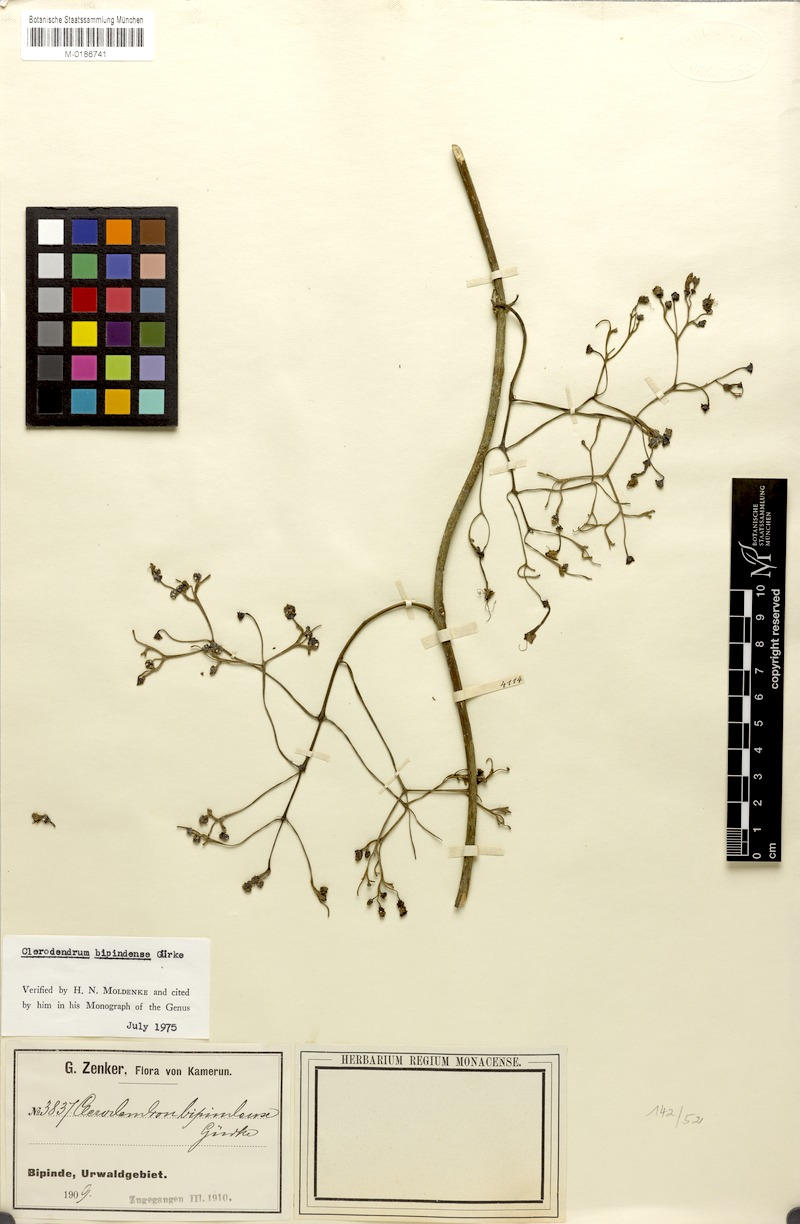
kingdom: Plantae
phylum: Tracheophyta
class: Magnoliopsida
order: Lamiales
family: Lamiaceae
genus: Clerodendrum
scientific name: Clerodendrum bipindense
